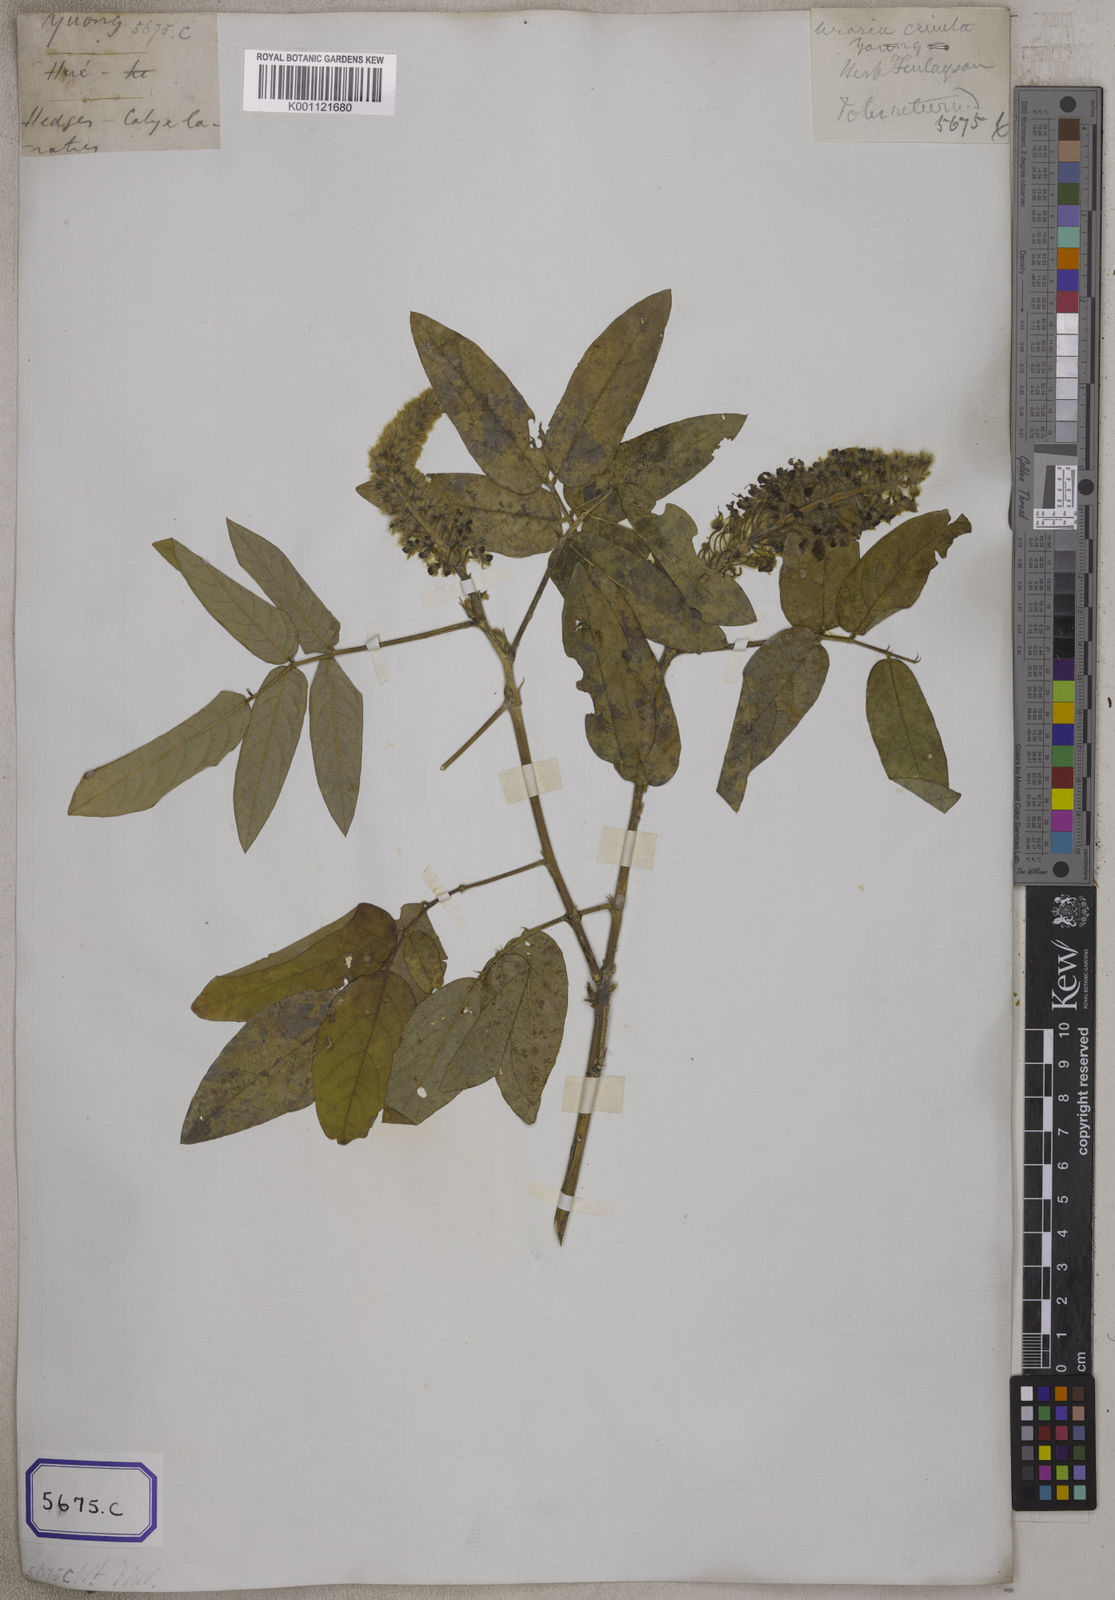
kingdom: Plantae
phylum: Tracheophyta
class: Magnoliopsida
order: Fabales
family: Fabaceae
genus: Uraria
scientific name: Uraria
